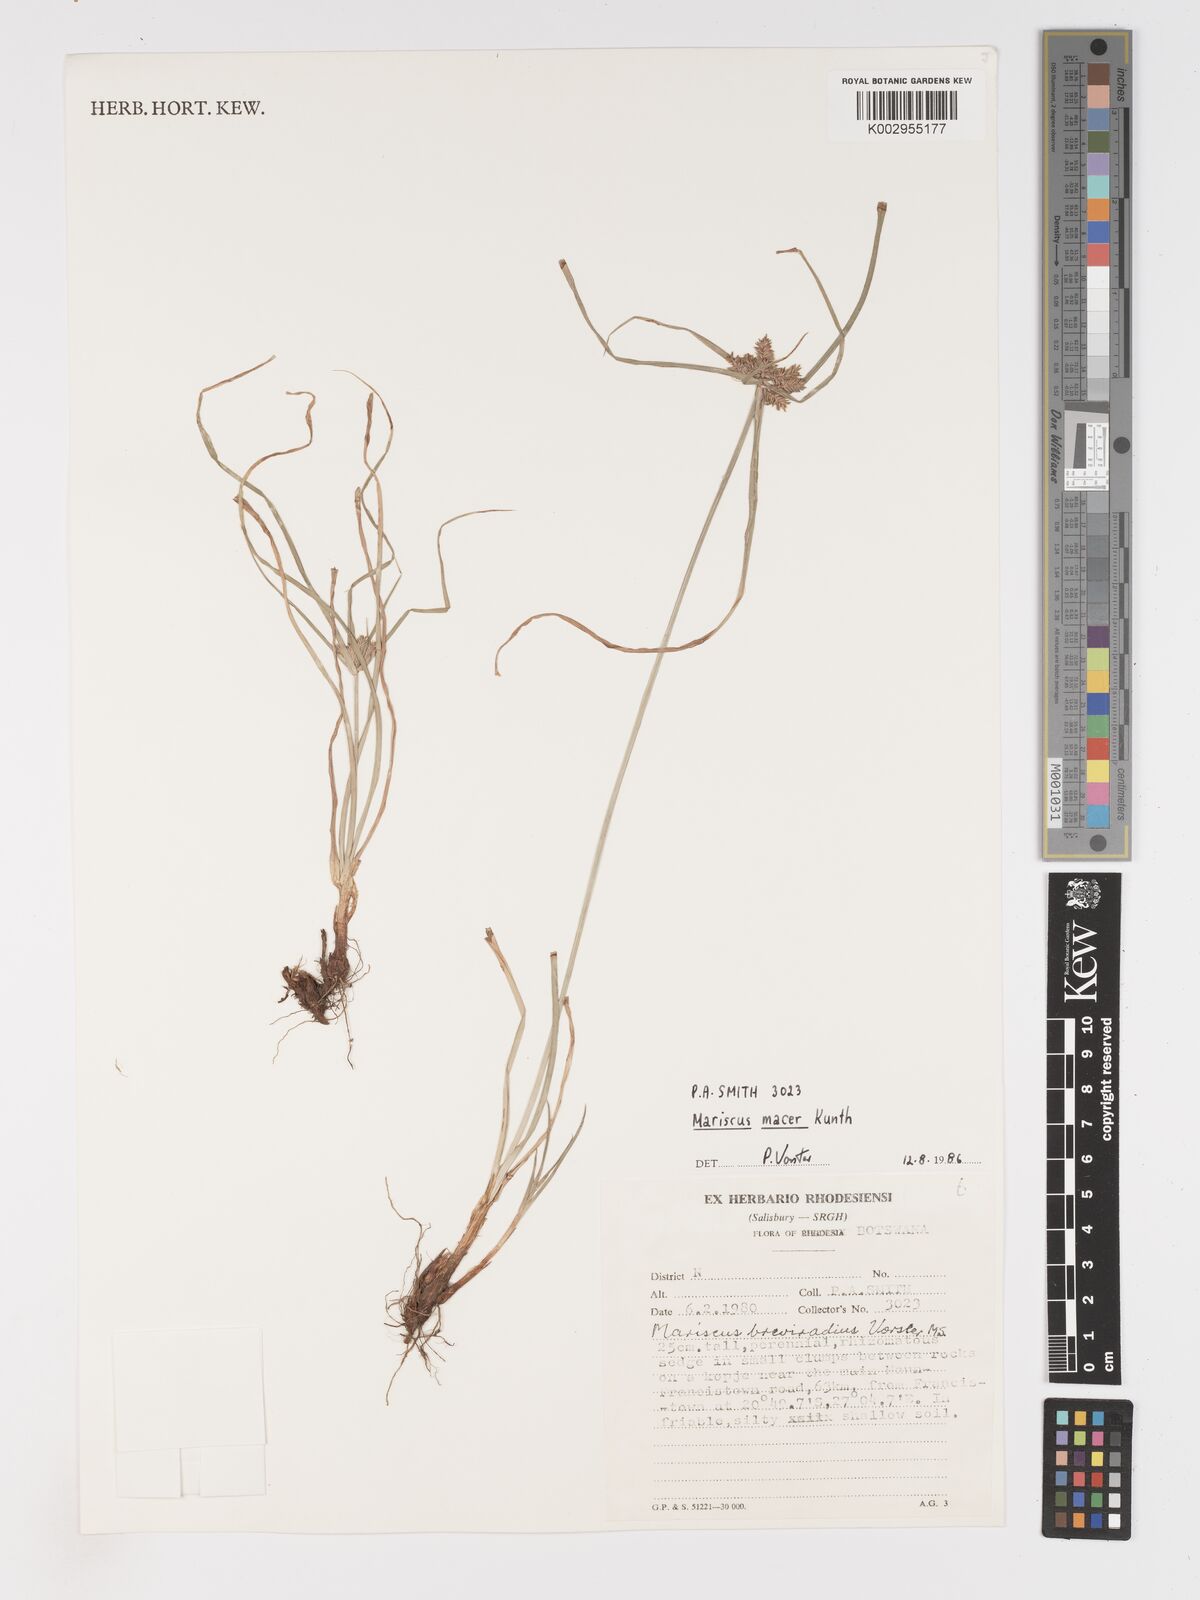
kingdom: Plantae
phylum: Tracheophyta
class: Liliopsida
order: Poales
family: Cyperaceae
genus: Cyperus
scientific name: Cyperus
